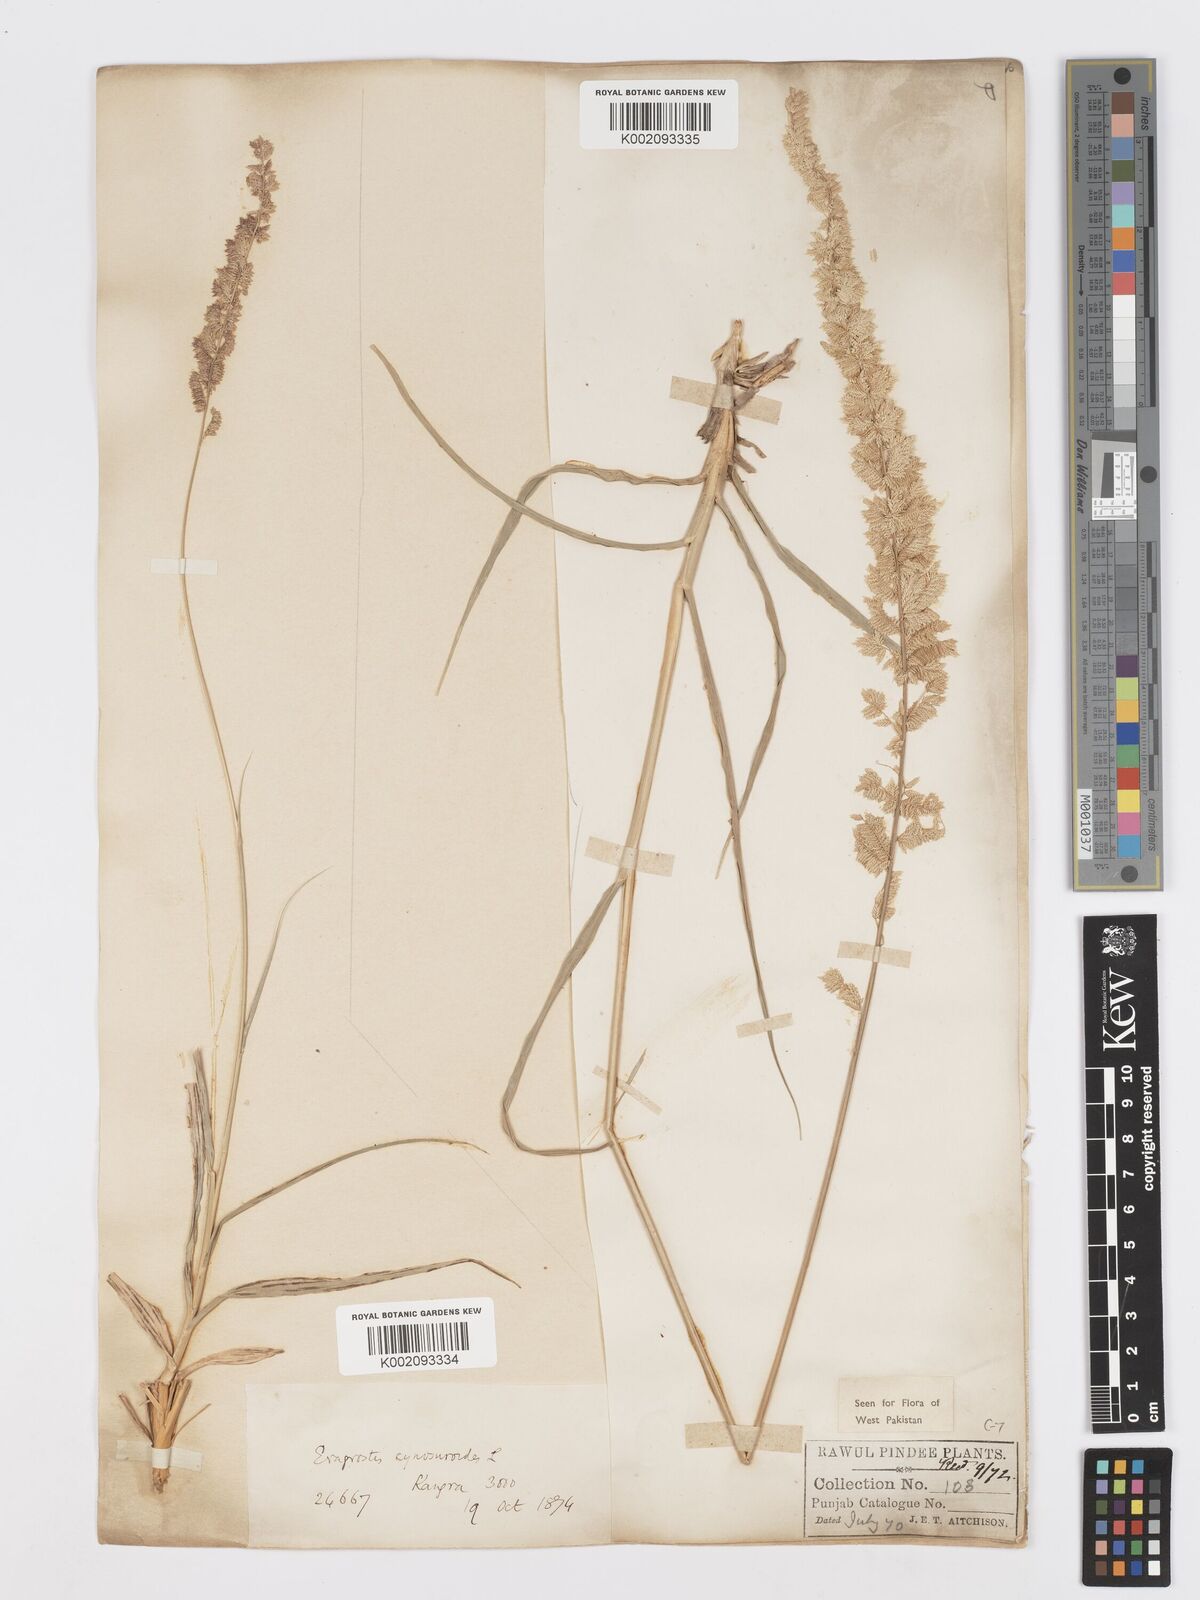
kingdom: Plantae
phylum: Tracheophyta
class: Liliopsida
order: Poales
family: Poaceae
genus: Desmostachya
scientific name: Desmostachya bipinnata
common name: Crowfoot grass
